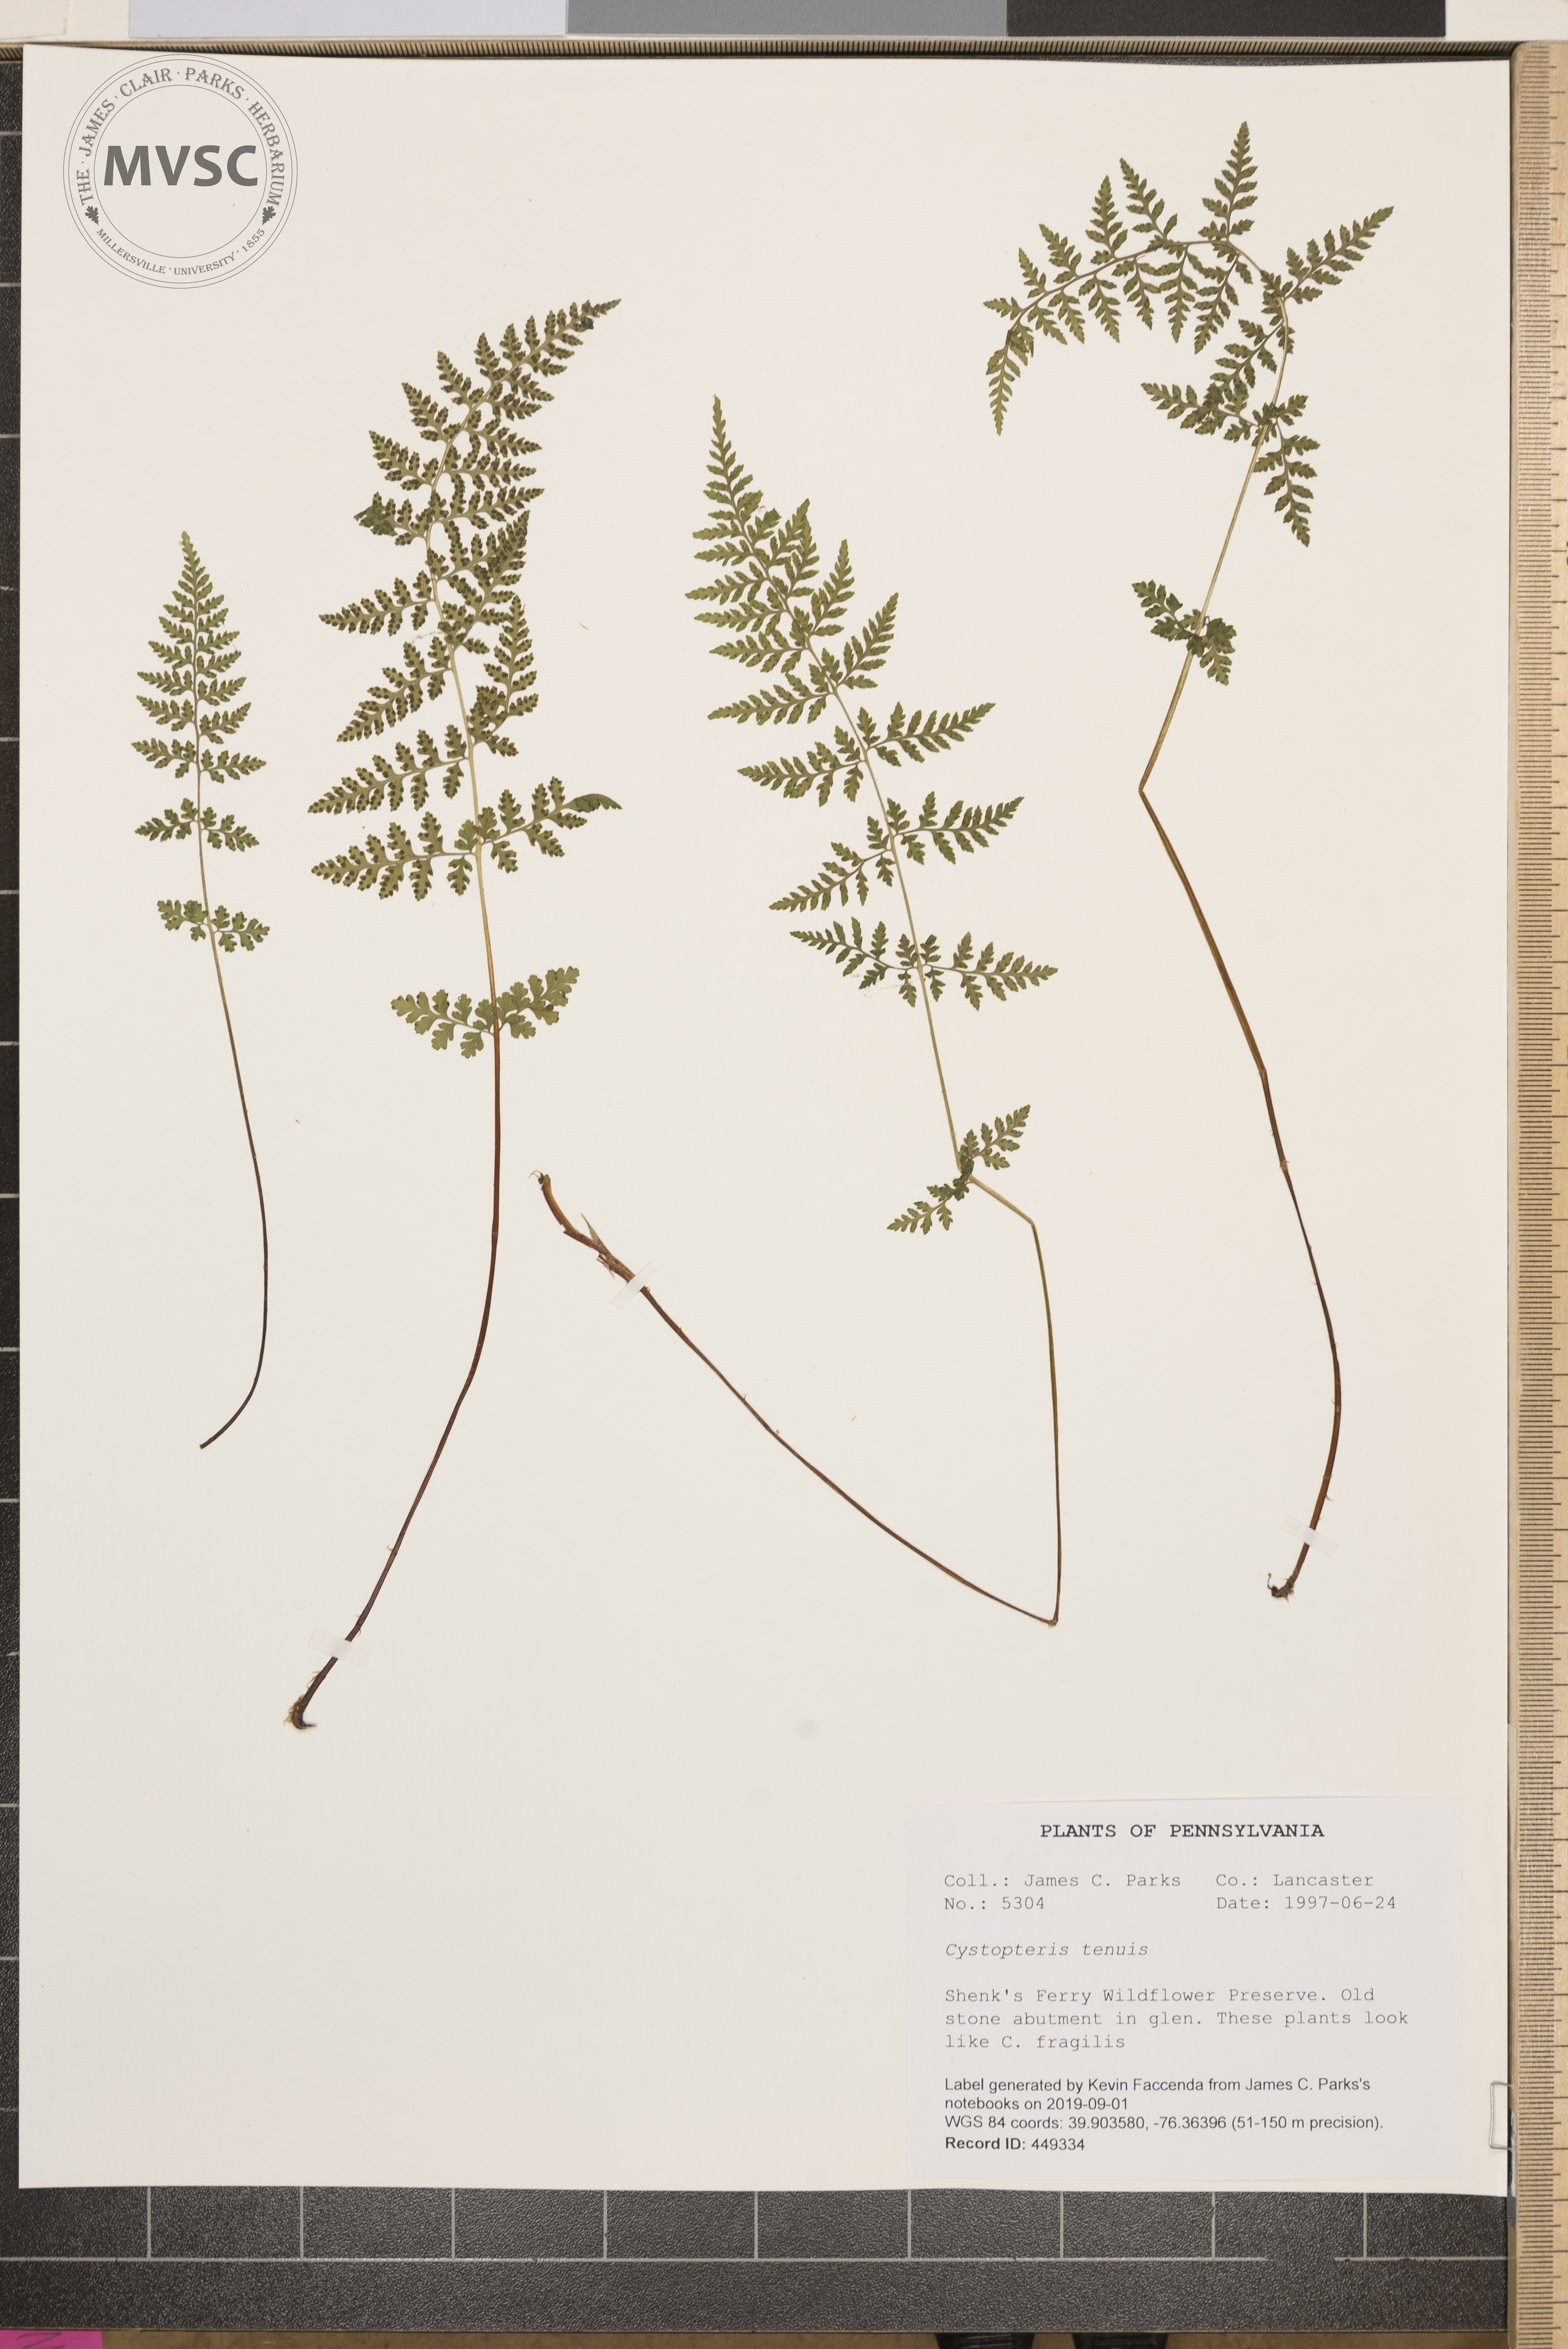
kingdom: Plantae
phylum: Tracheophyta
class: Polypodiopsida
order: Polypodiales
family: Cystopteridaceae
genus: Cystopteris
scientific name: Cystopteris tenuis
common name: Mackay's brittle fern
